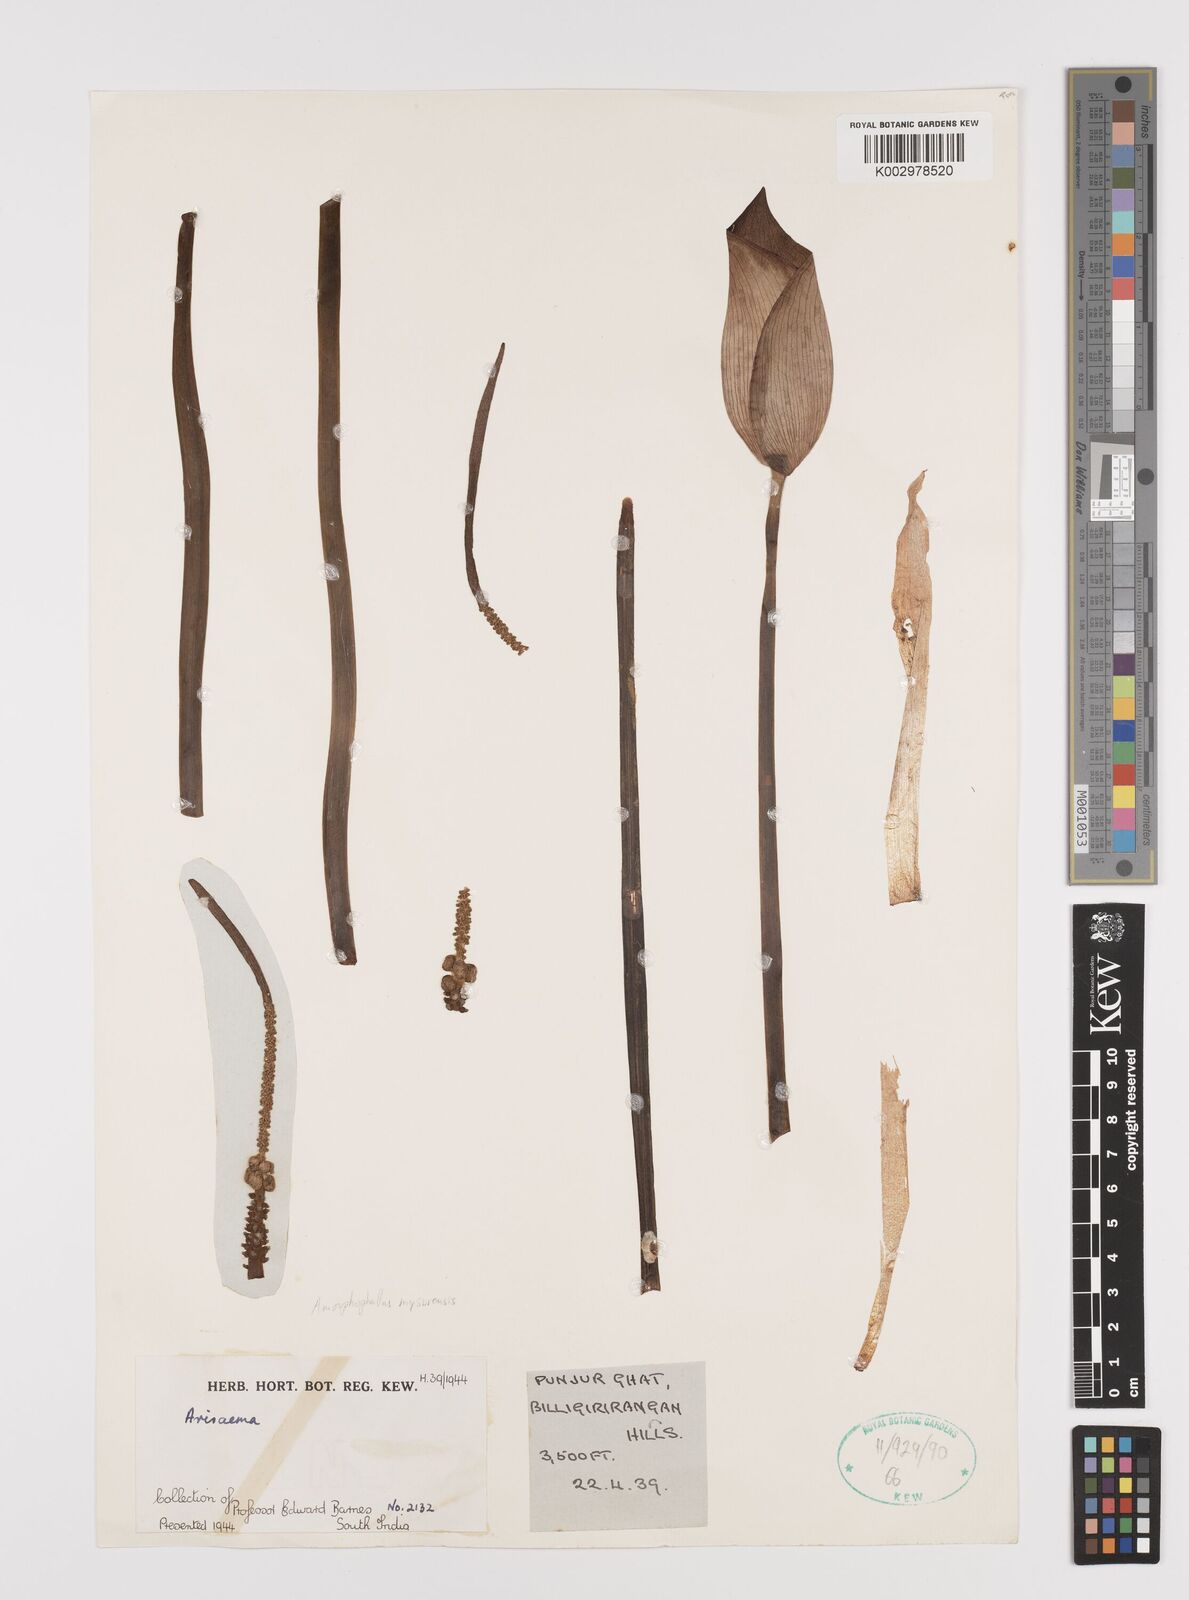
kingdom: Plantae
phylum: Tracheophyta
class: Liliopsida
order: Alismatales
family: Araceae
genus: Amorphophallus
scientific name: Amorphophallus mysorensis
